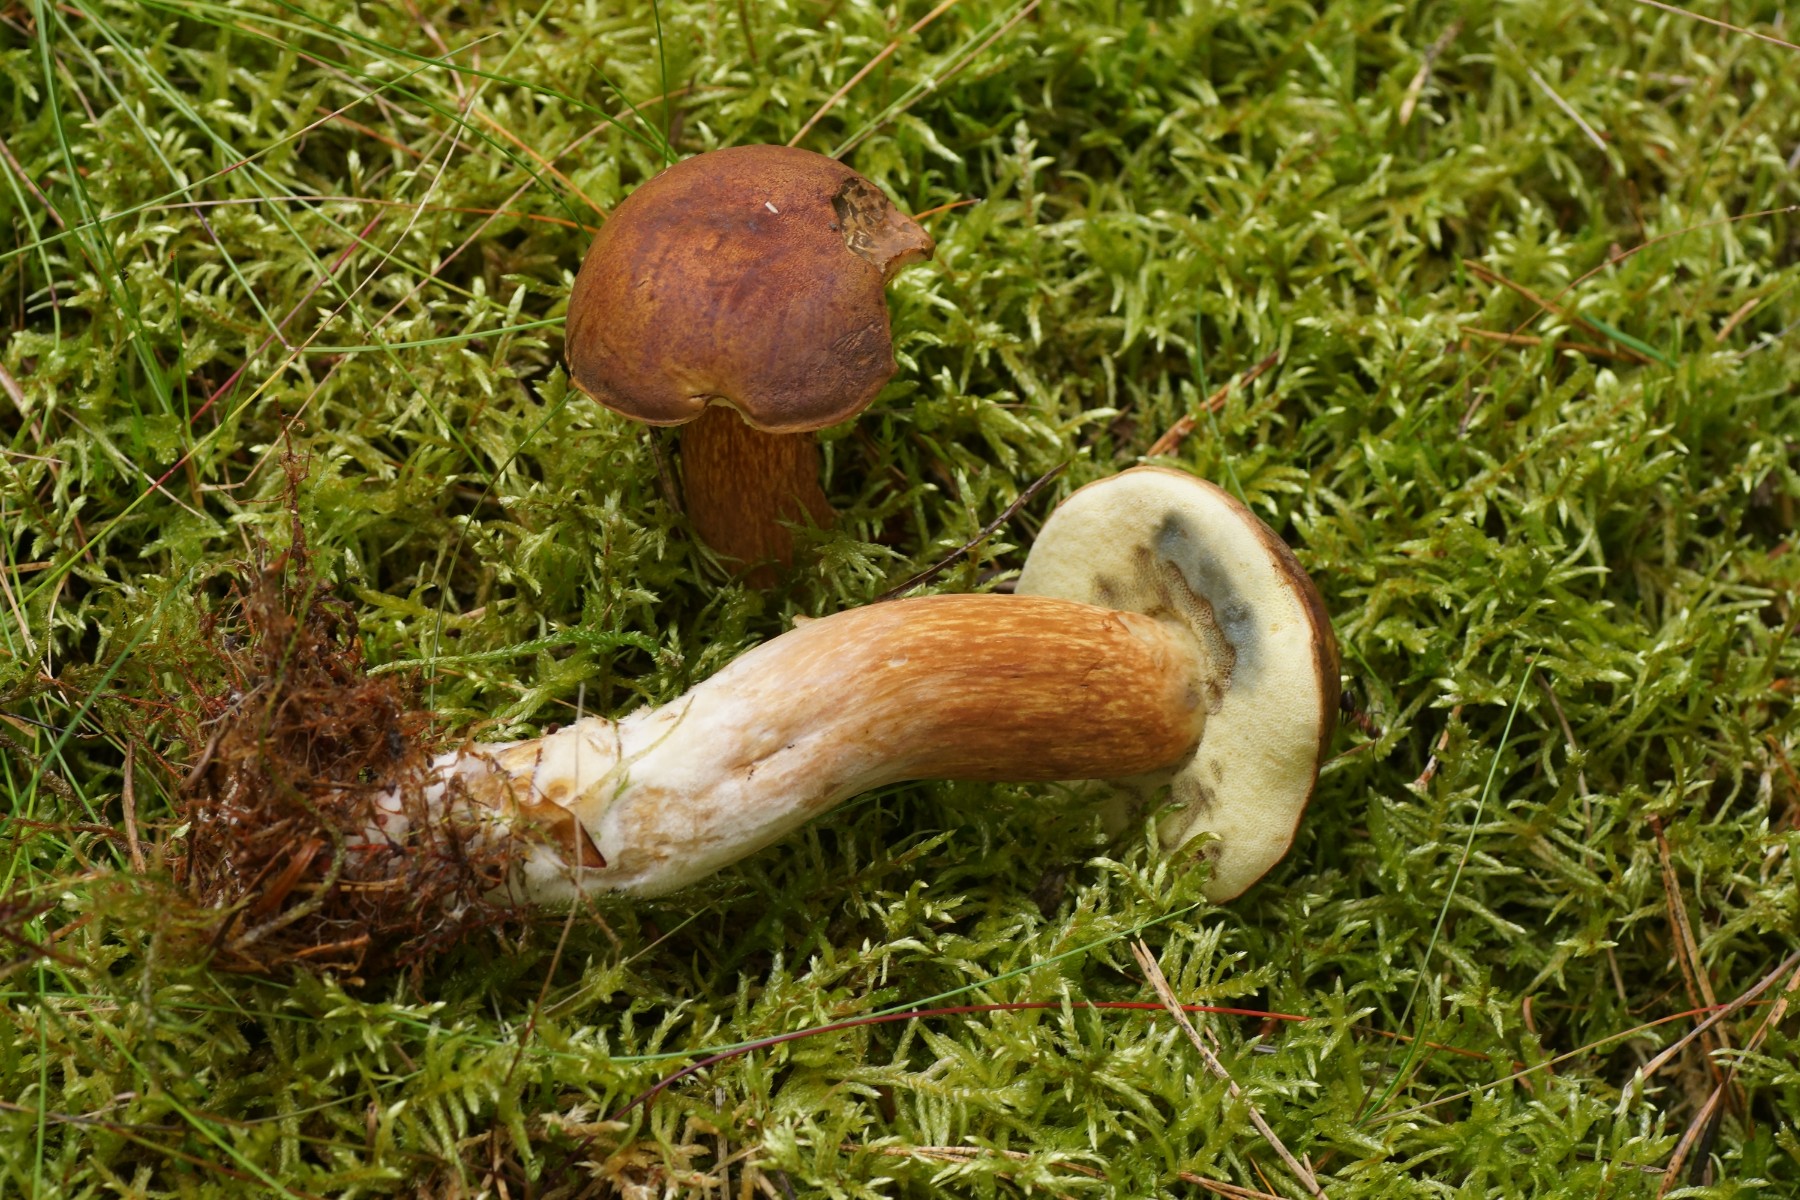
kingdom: Fungi
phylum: Basidiomycota
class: Agaricomycetes
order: Boletales
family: Boletaceae
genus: Imleria
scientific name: Imleria badia
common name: brunstokket rørhat
